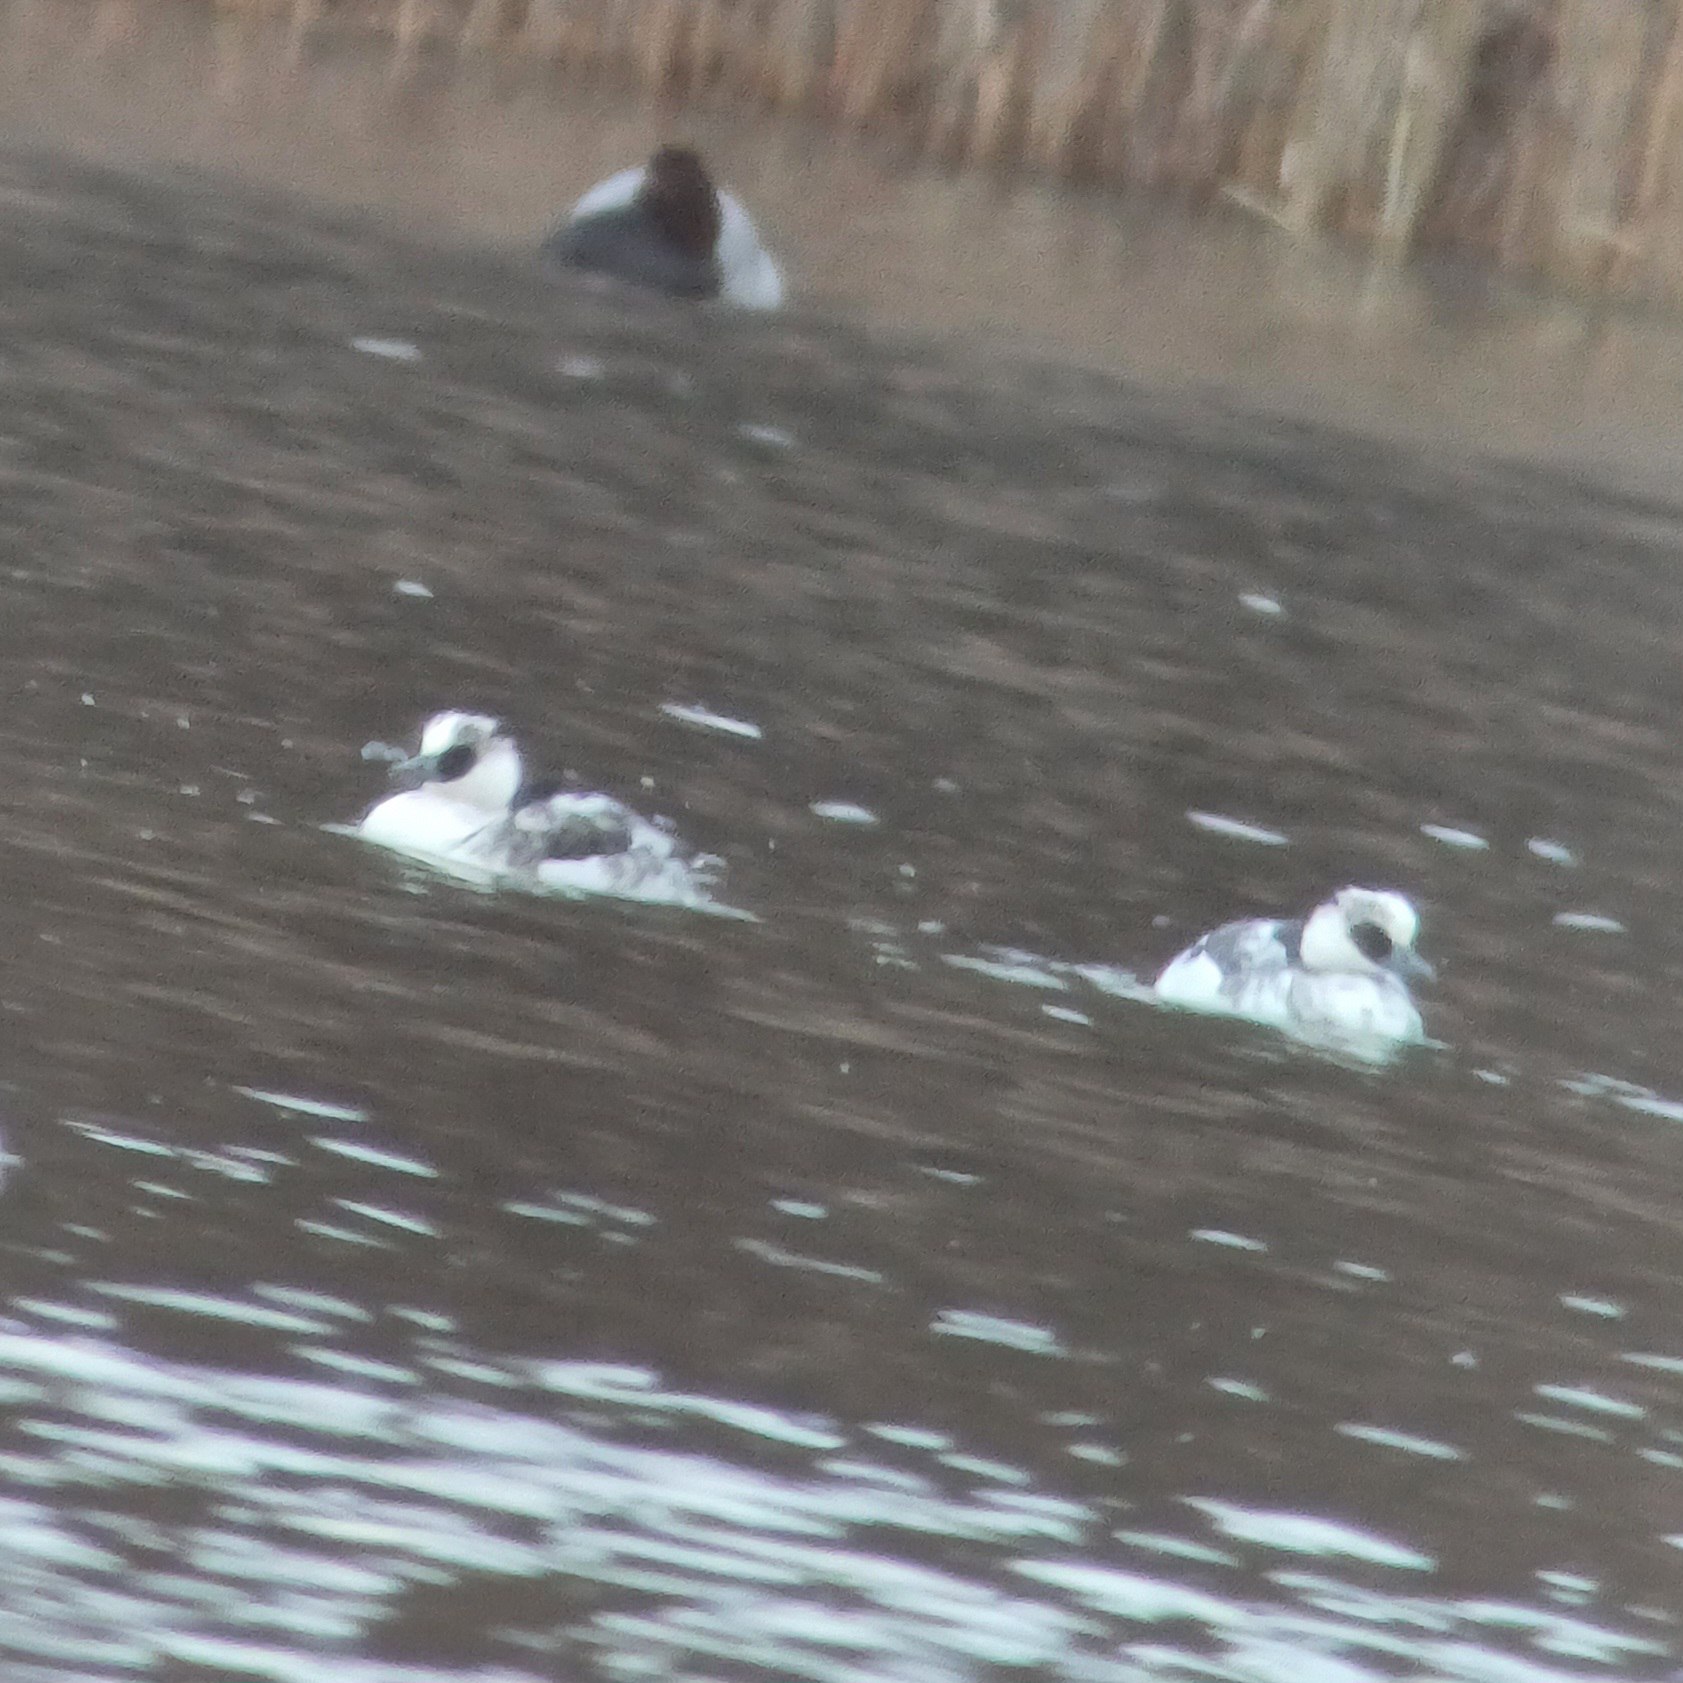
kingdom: Animalia
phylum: Chordata
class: Aves
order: Anseriformes
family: Anatidae
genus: Mergellus
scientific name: Mergellus albellus
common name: Lille skallesluger
